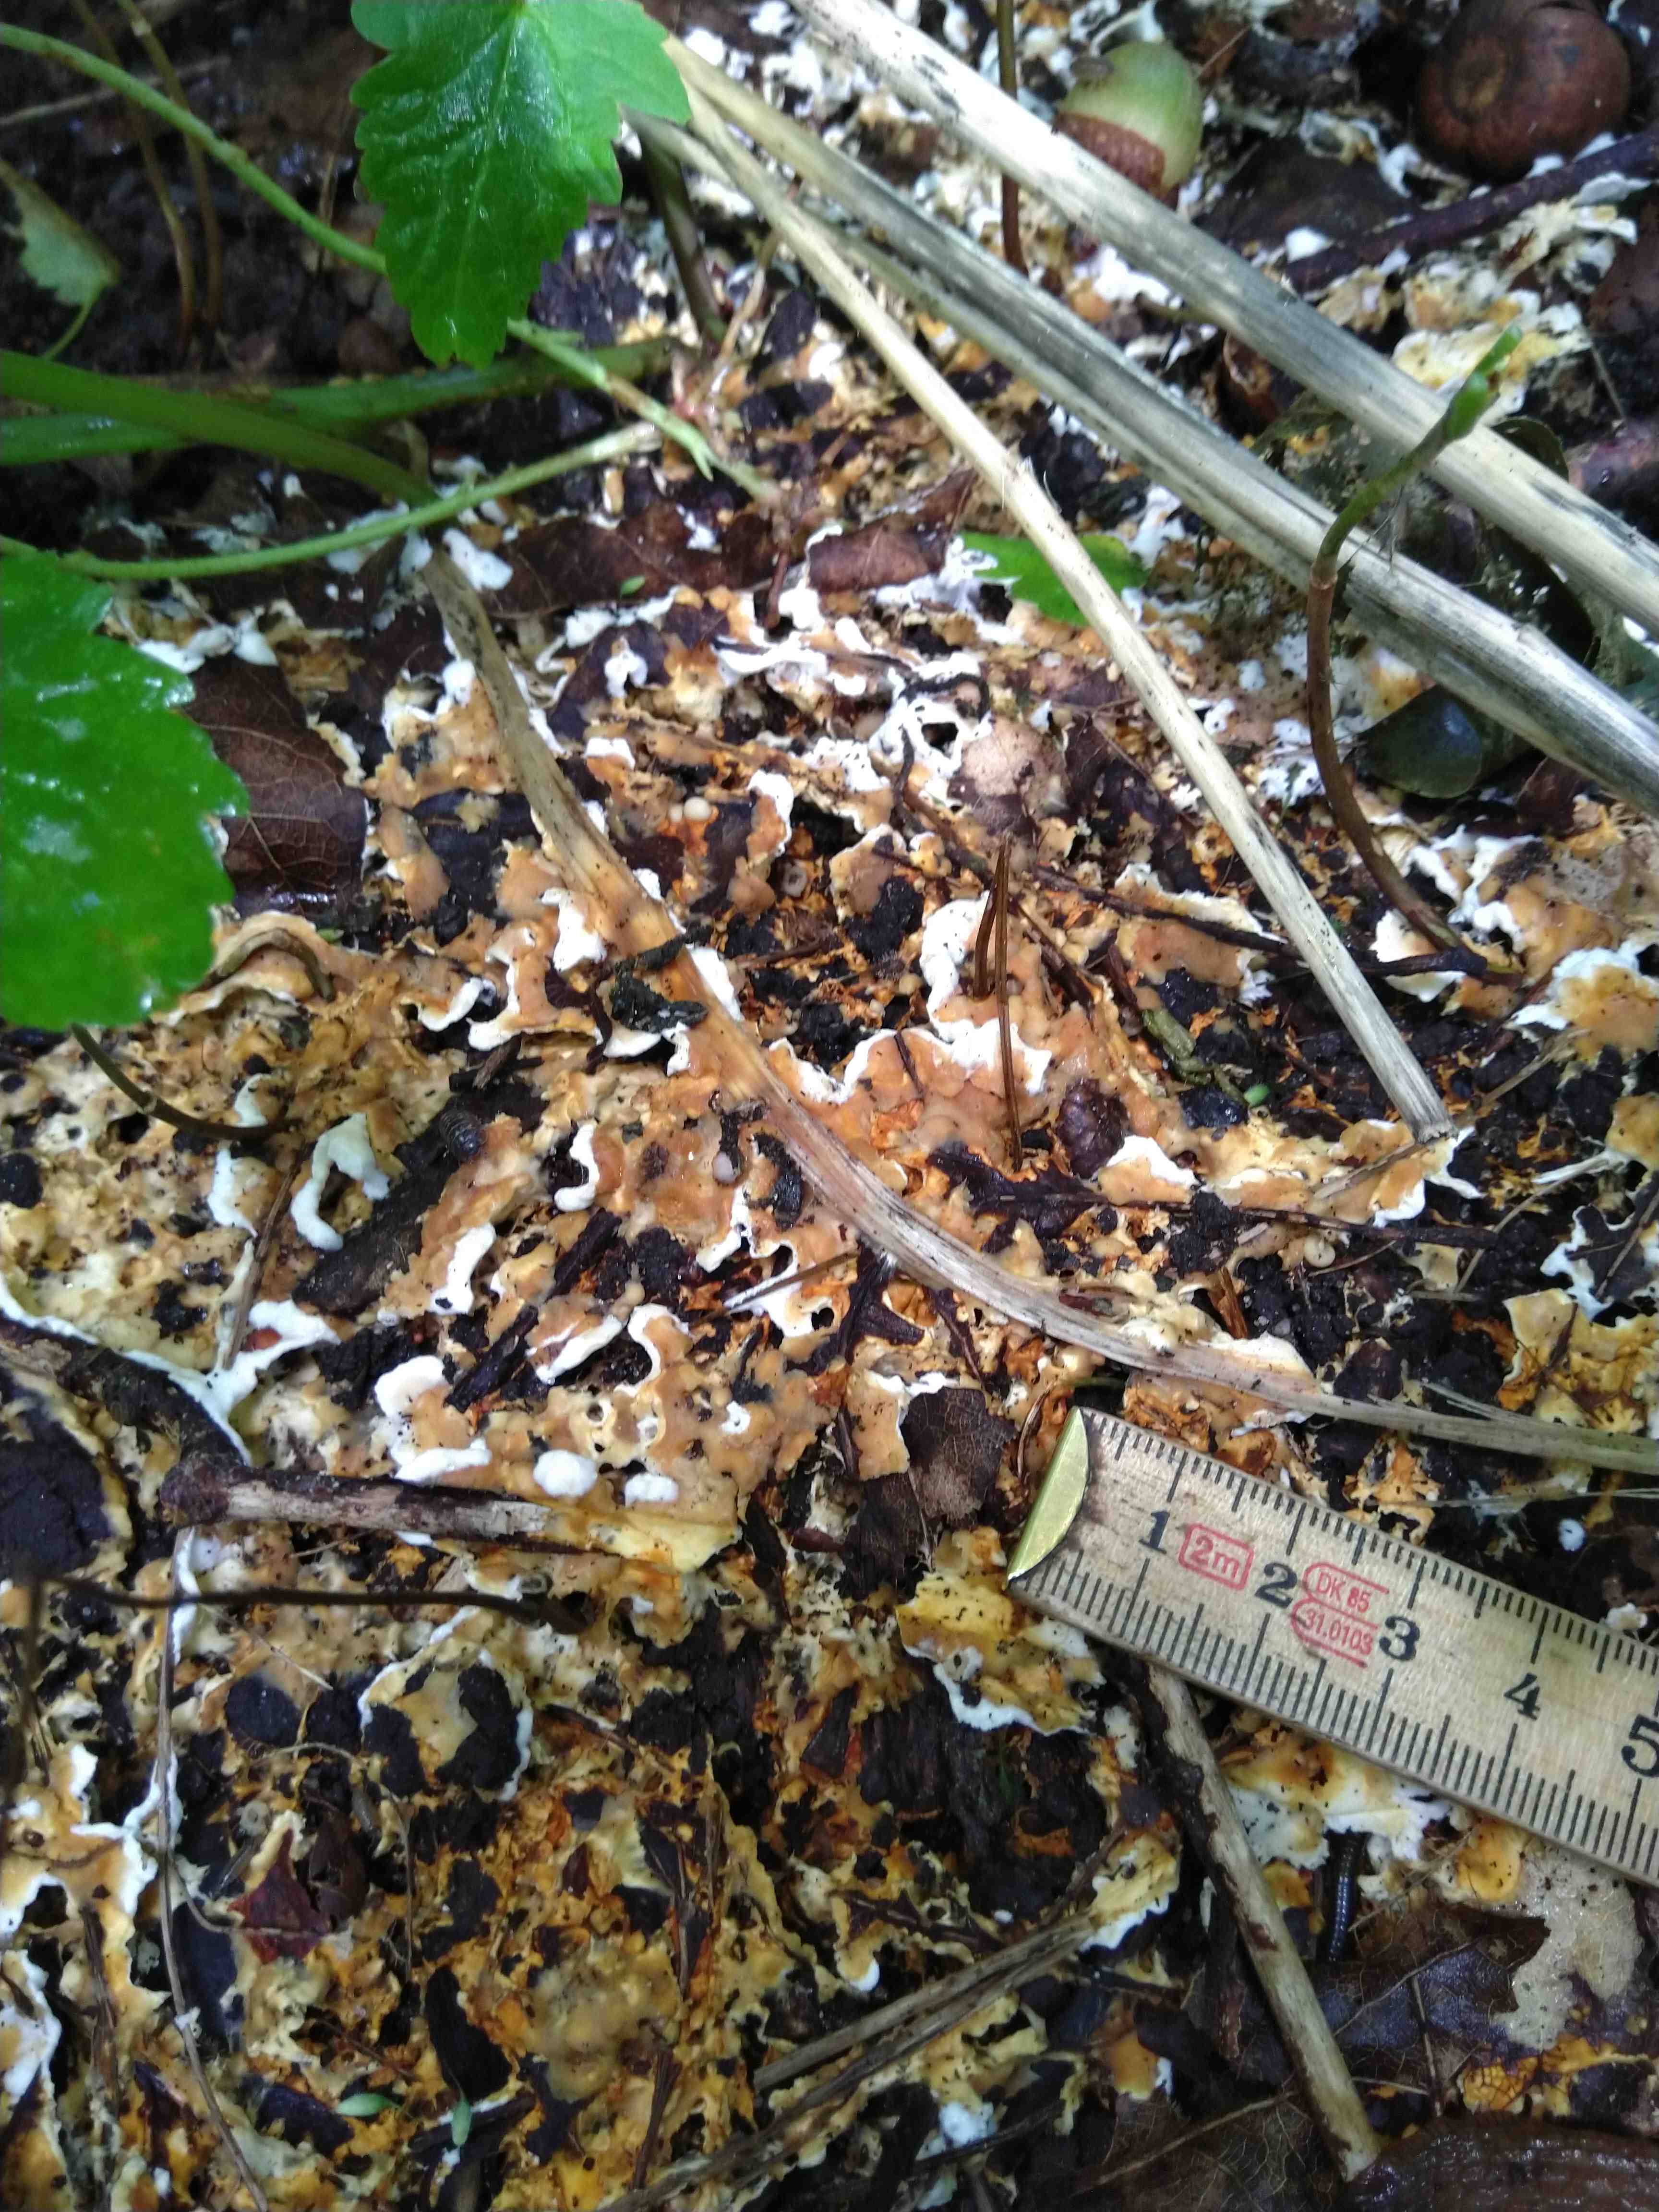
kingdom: Fungi
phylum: Basidiomycota
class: Agaricomycetes
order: Polyporales
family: Steccherinaceae
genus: Loweomyces
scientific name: Loweomyces wynneae
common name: krybende blødporesvamp
